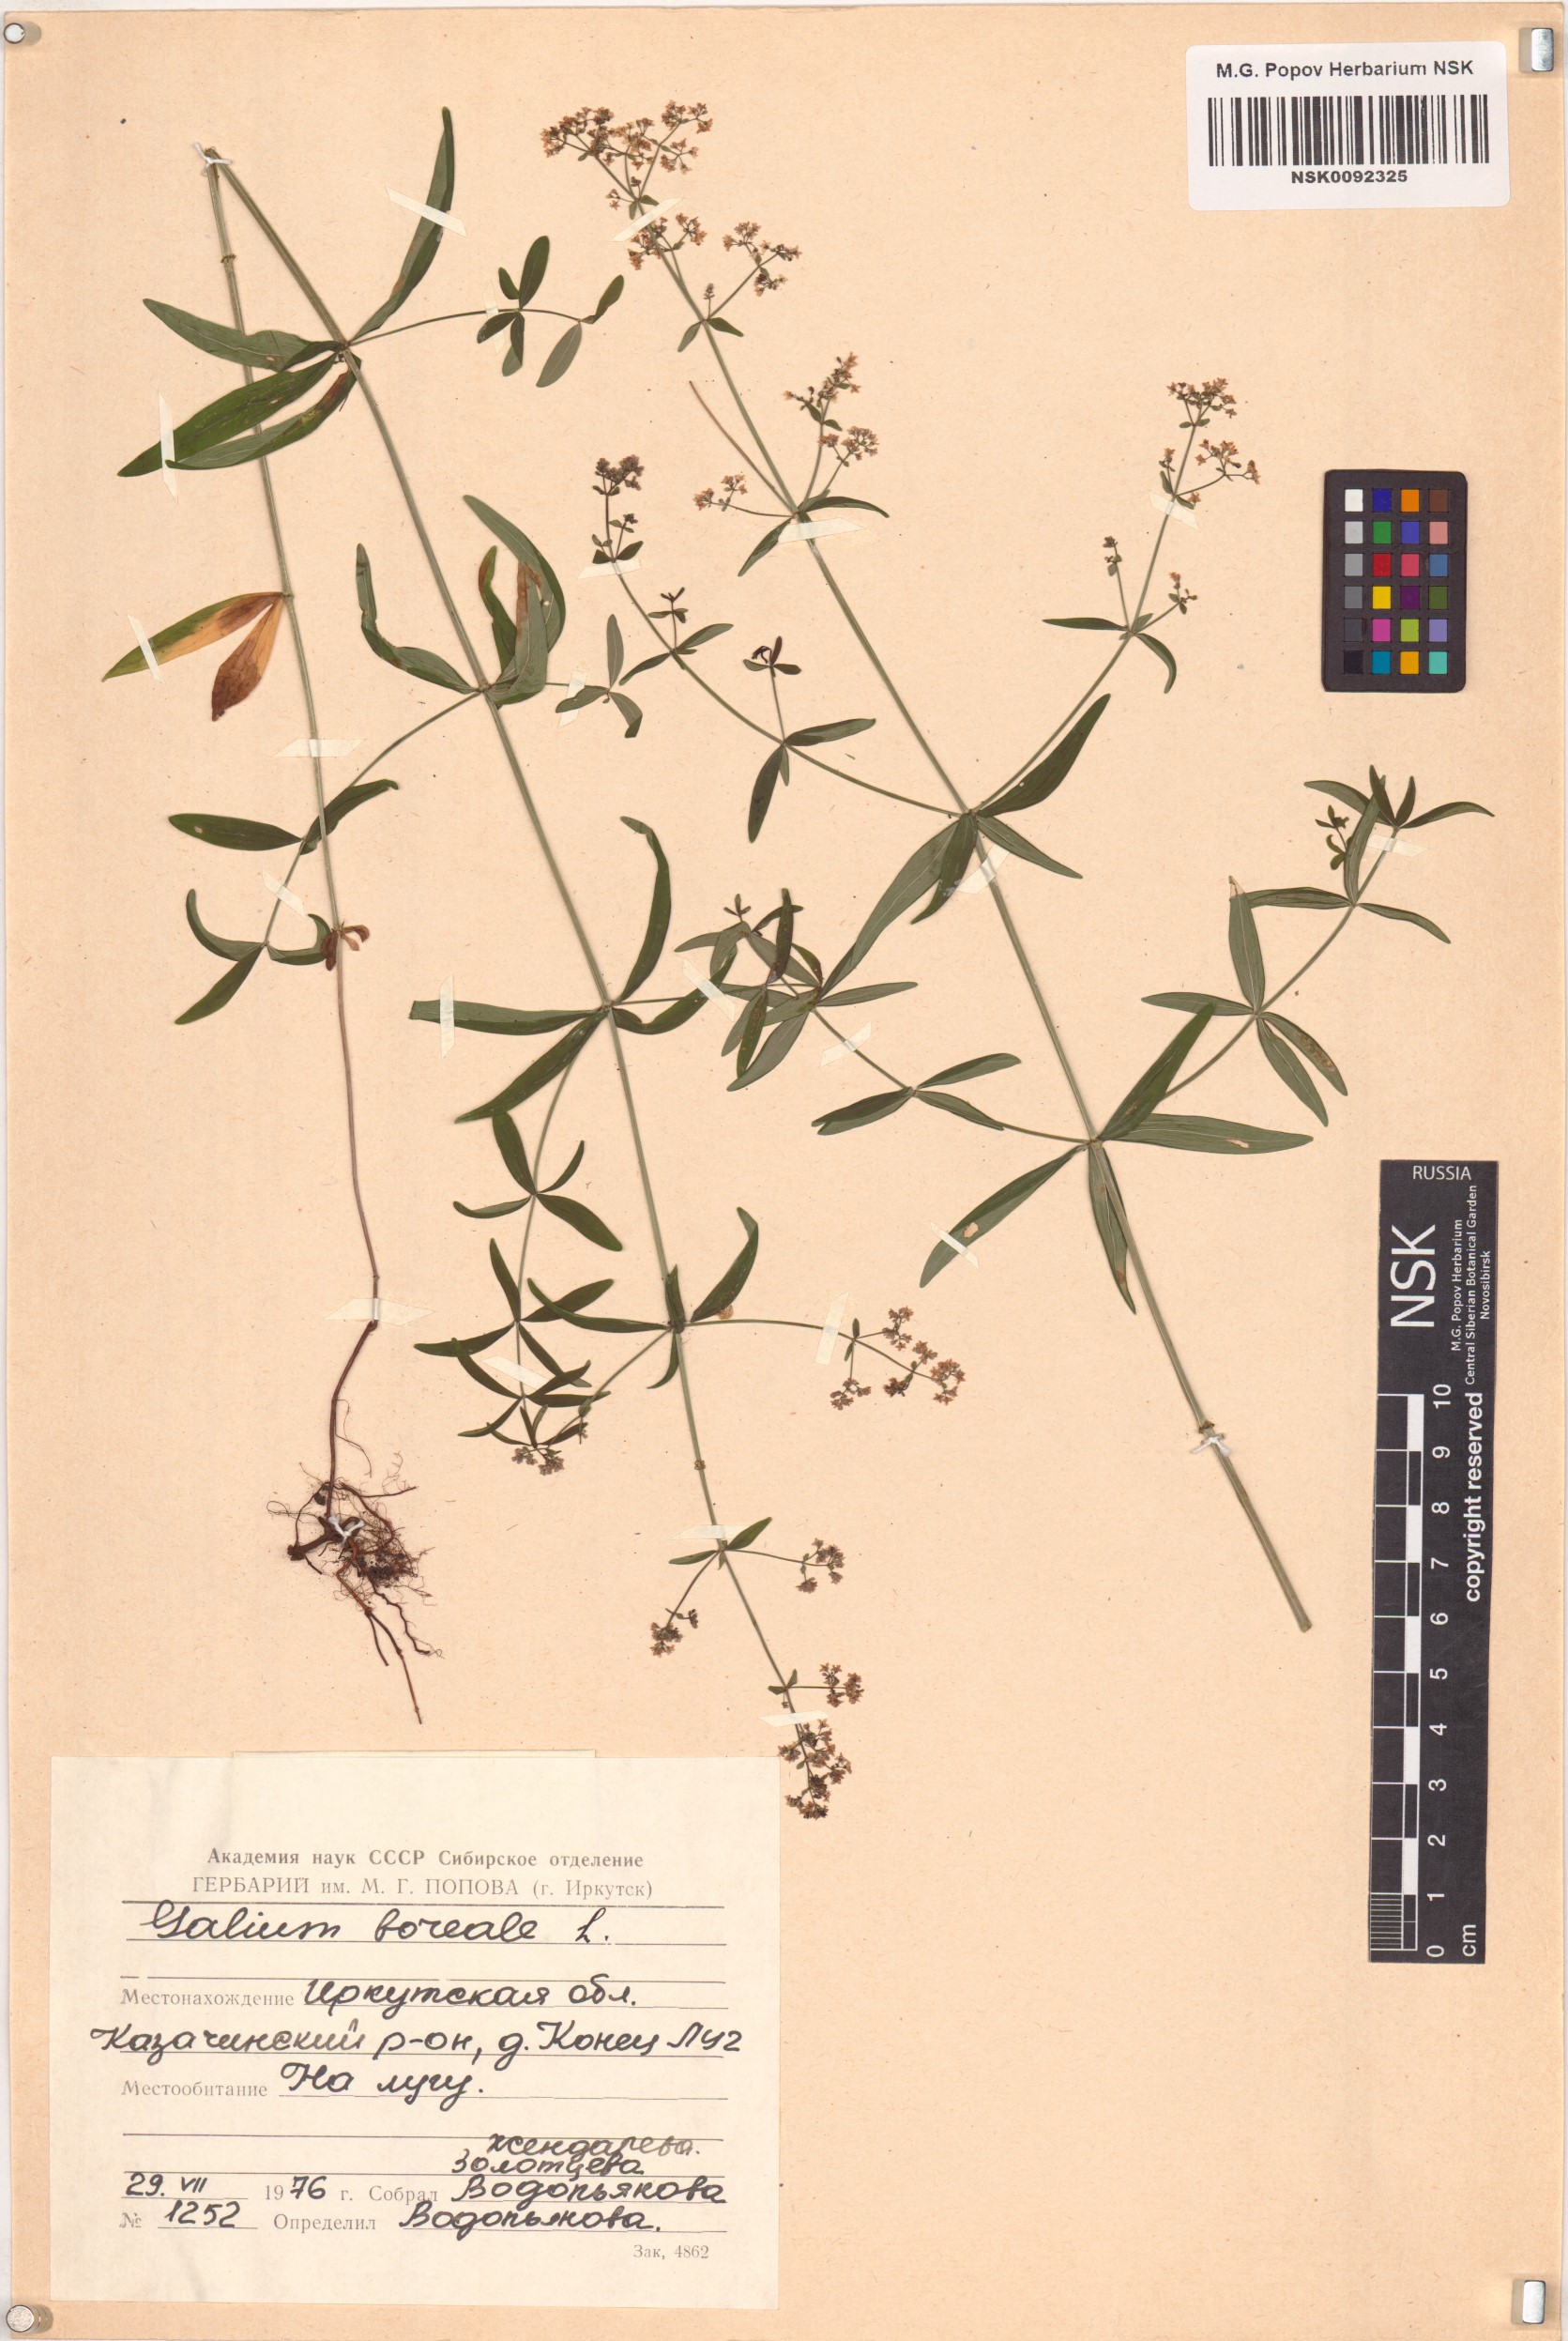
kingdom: Plantae
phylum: Tracheophyta
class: Magnoliopsida
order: Gentianales
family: Rubiaceae
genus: Galium
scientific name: Galium boreale
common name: Northern bedstraw
